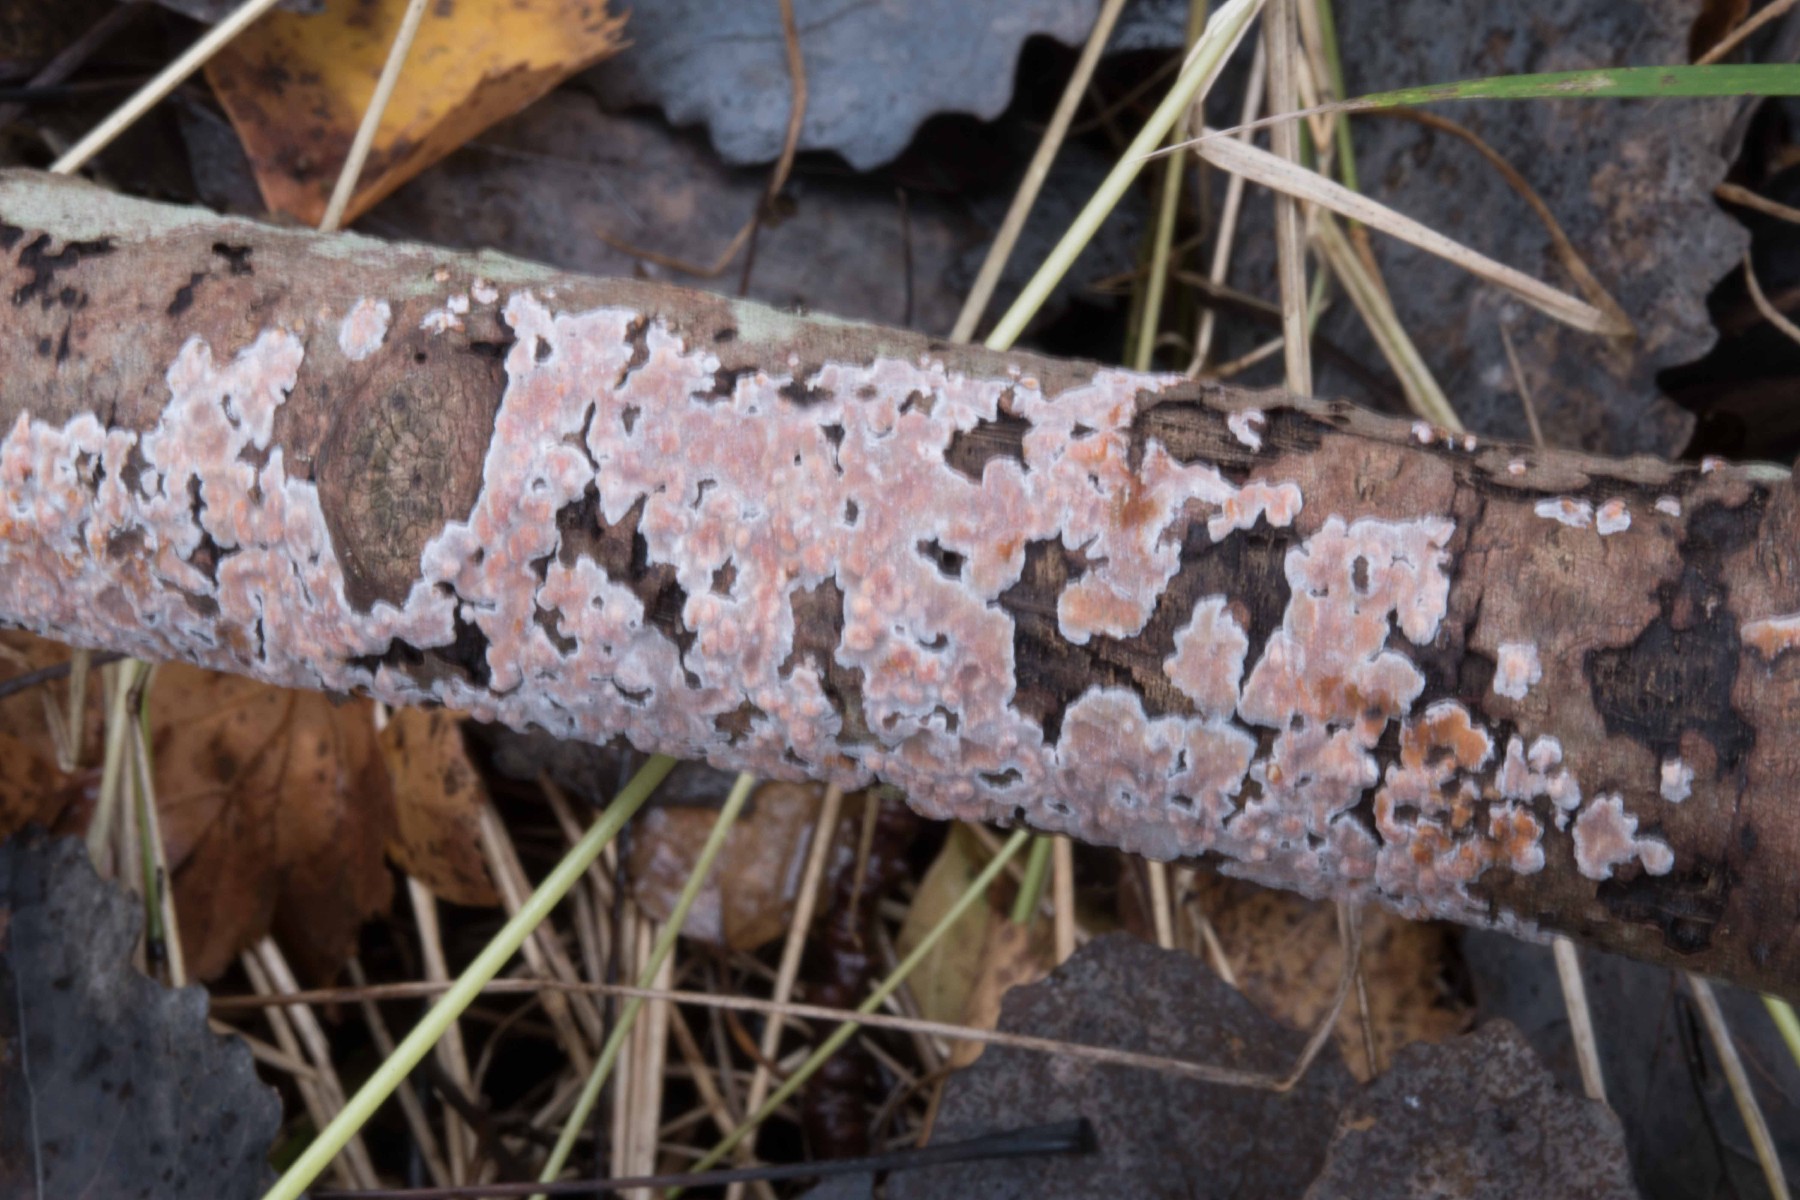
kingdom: Fungi
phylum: Basidiomycota
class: Agaricomycetes
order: Russulales
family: Peniophoraceae
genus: Peniophora
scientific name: Peniophora polygonia
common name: polygon-voksskind
